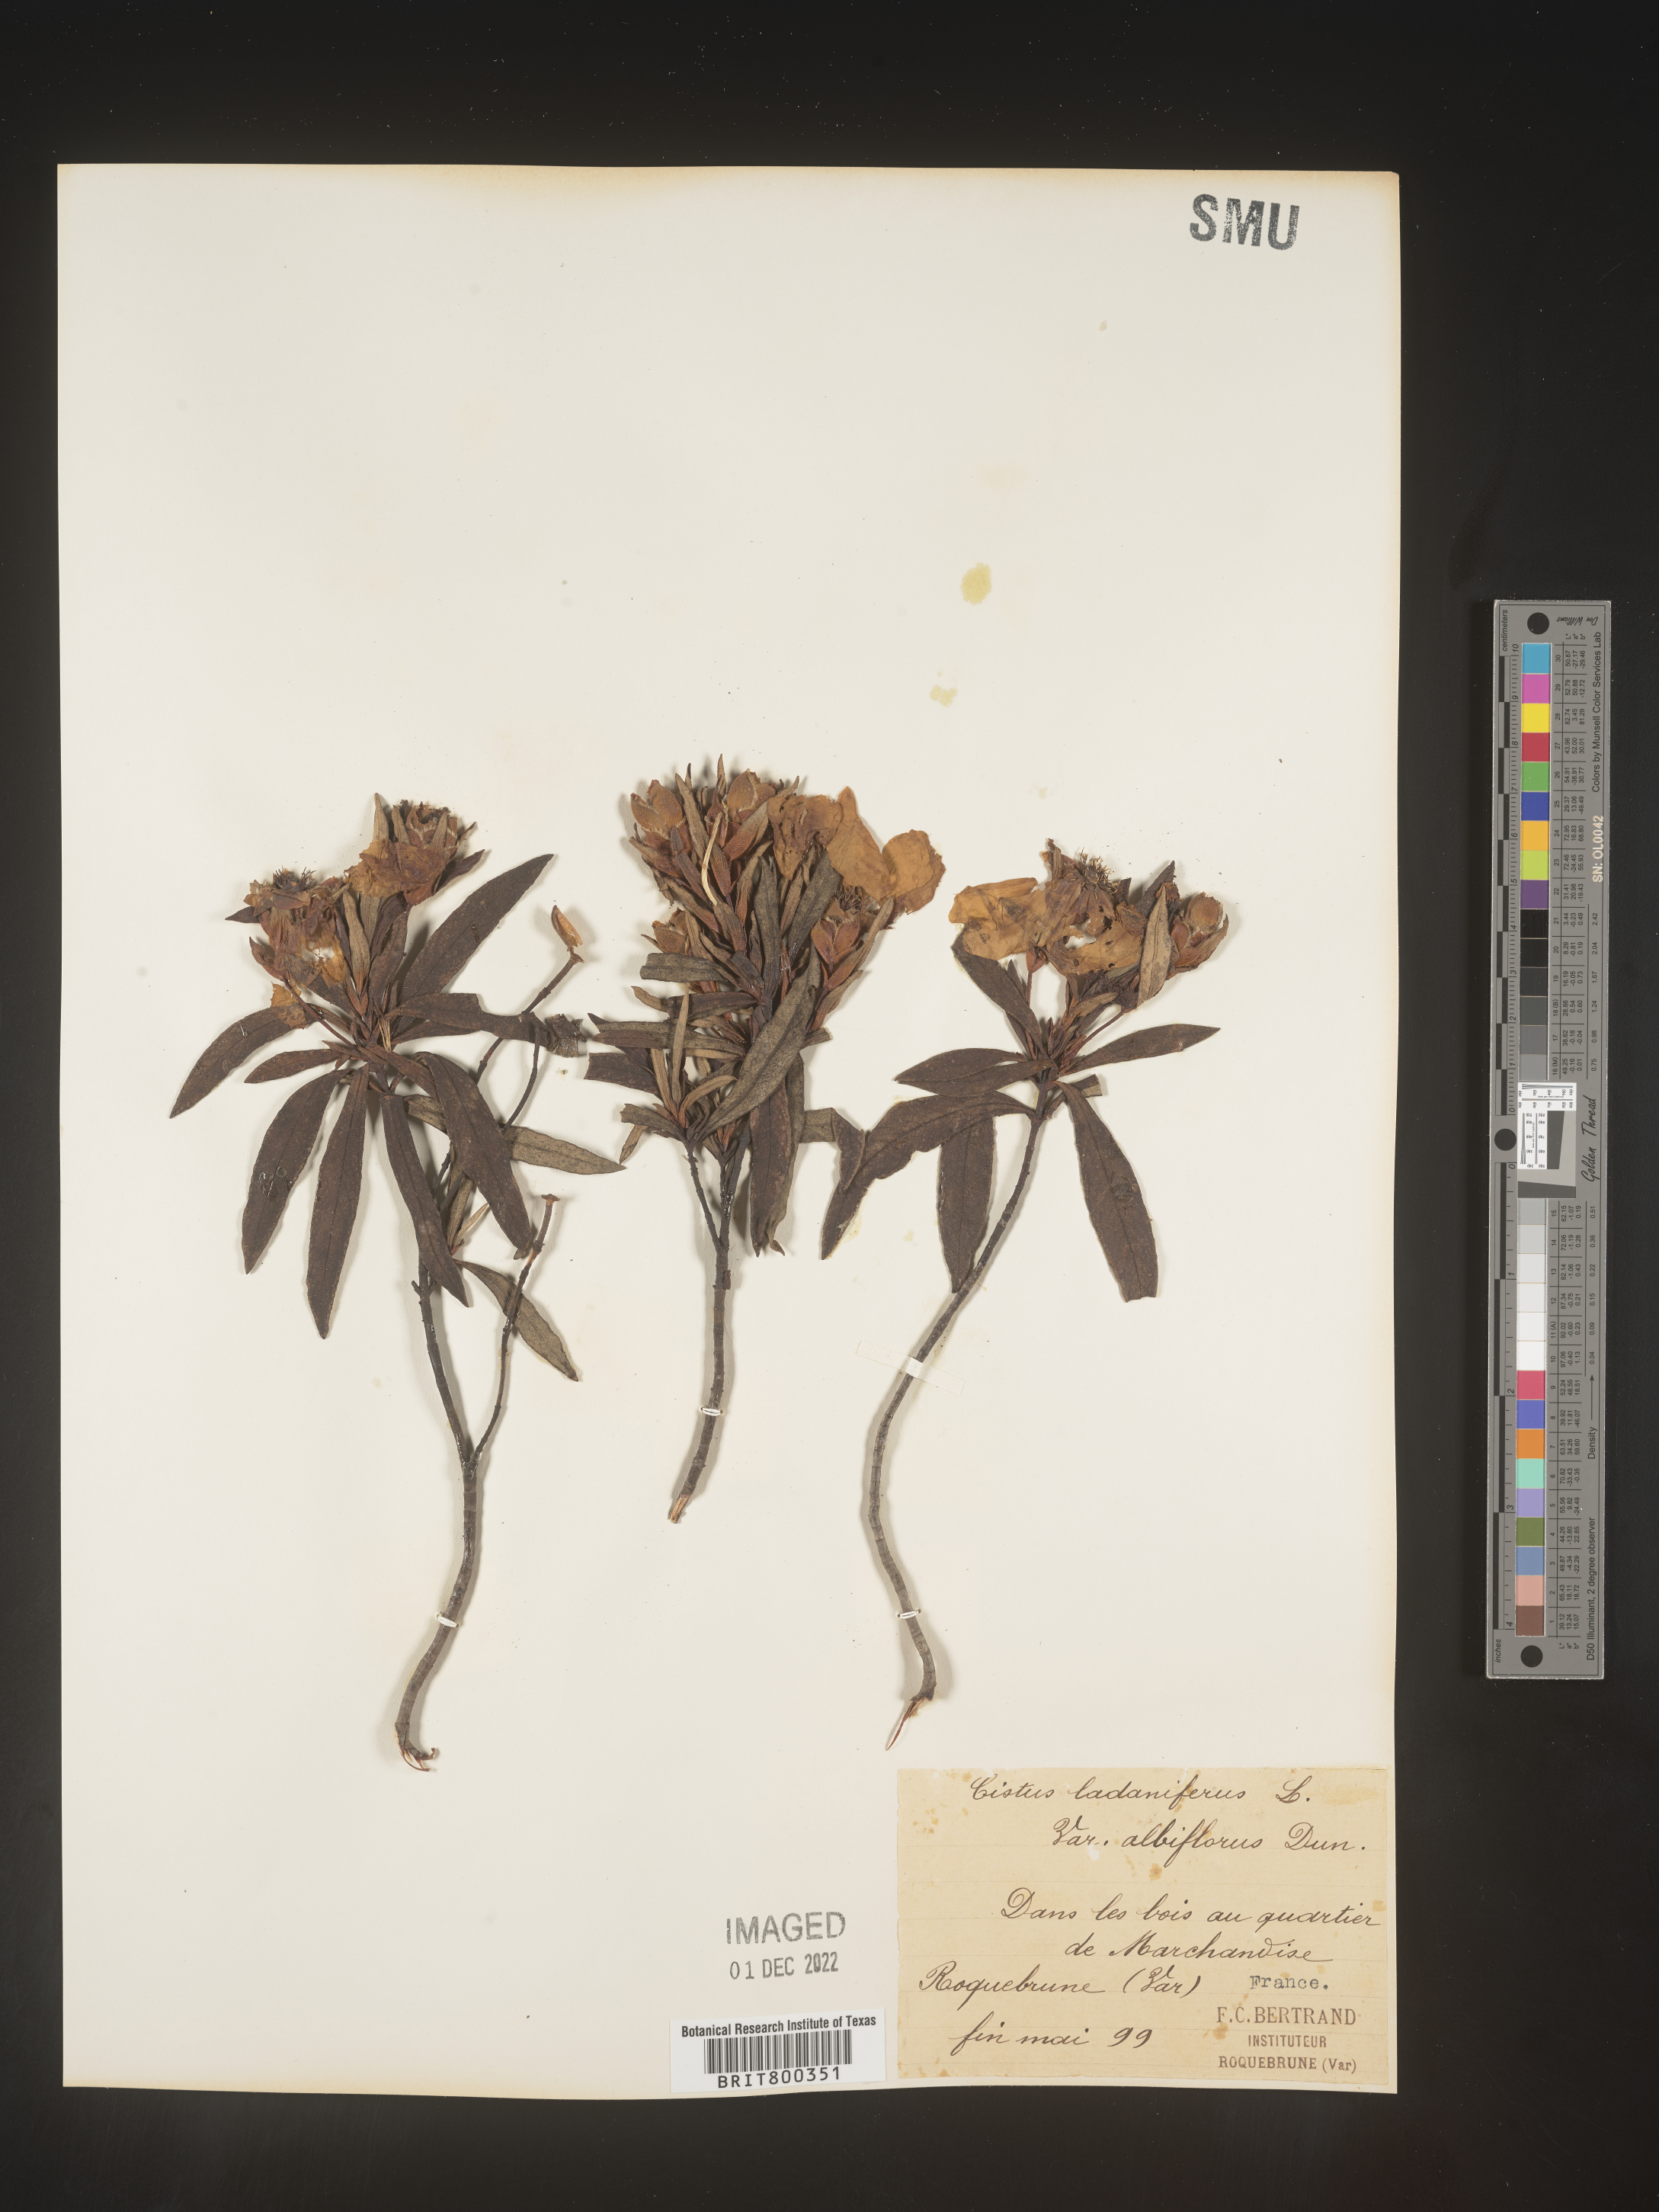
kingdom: Plantae
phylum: Tracheophyta
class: Magnoliopsida
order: Malvales
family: Cistaceae
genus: Cistus
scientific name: Cistus
